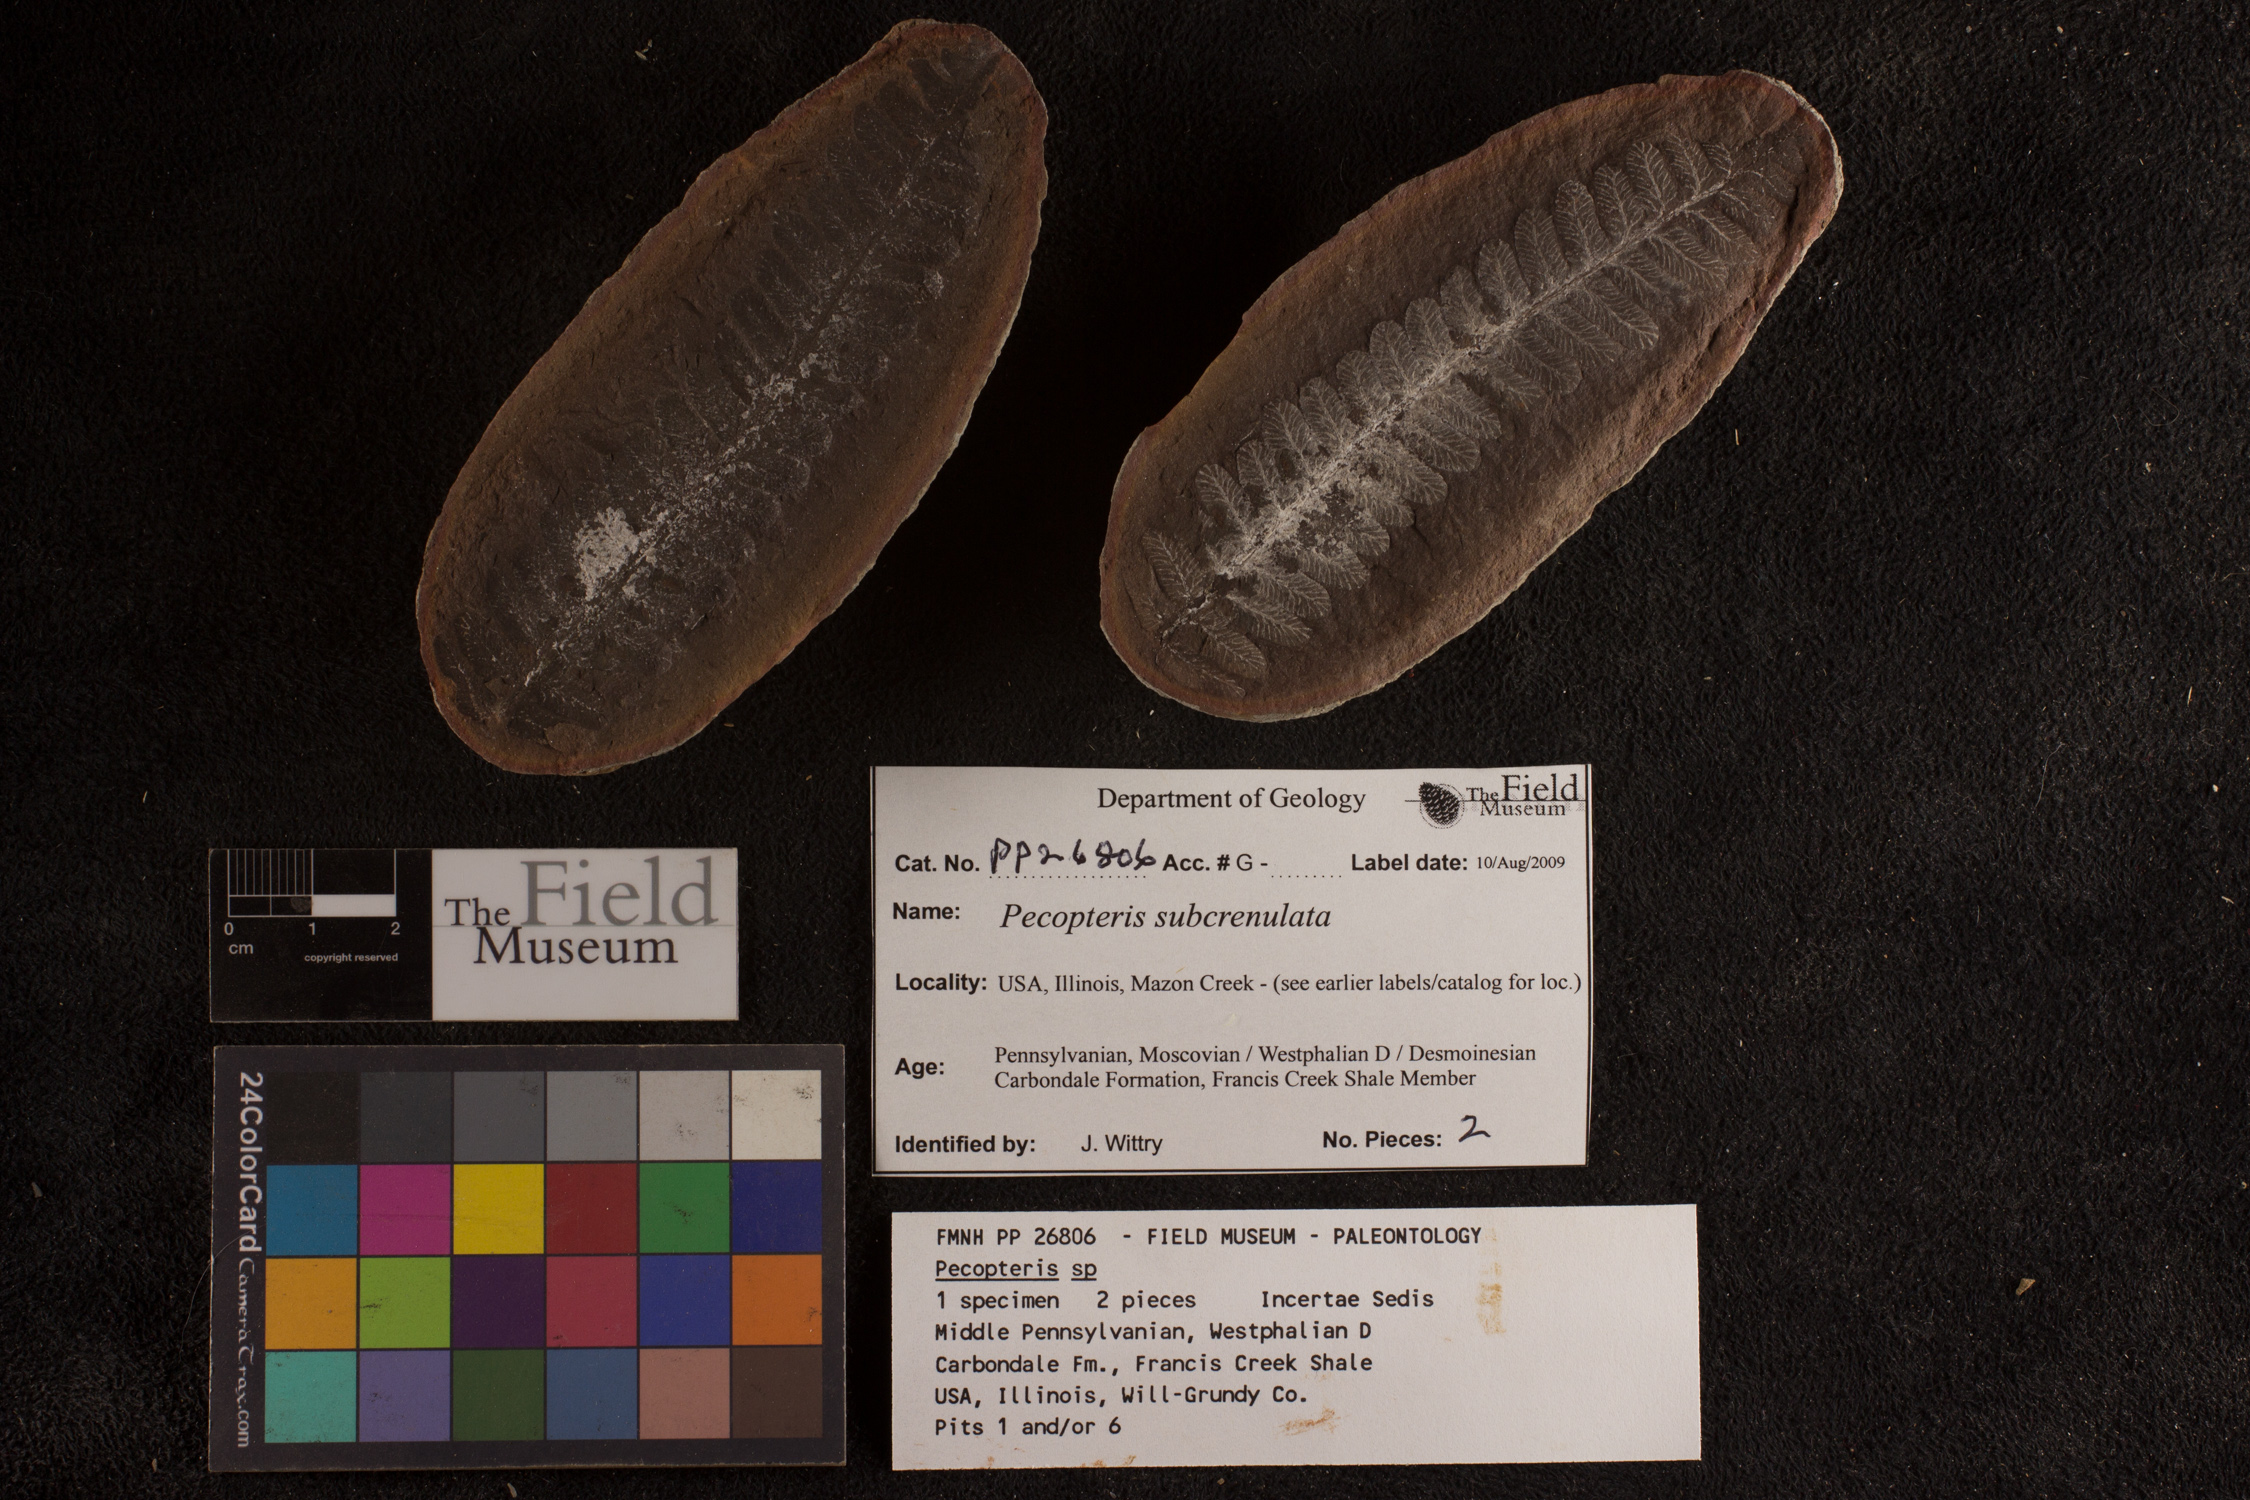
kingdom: Plantae
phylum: Tracheophyta
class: Polypodiopsida
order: Marattiales
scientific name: Marattiales
